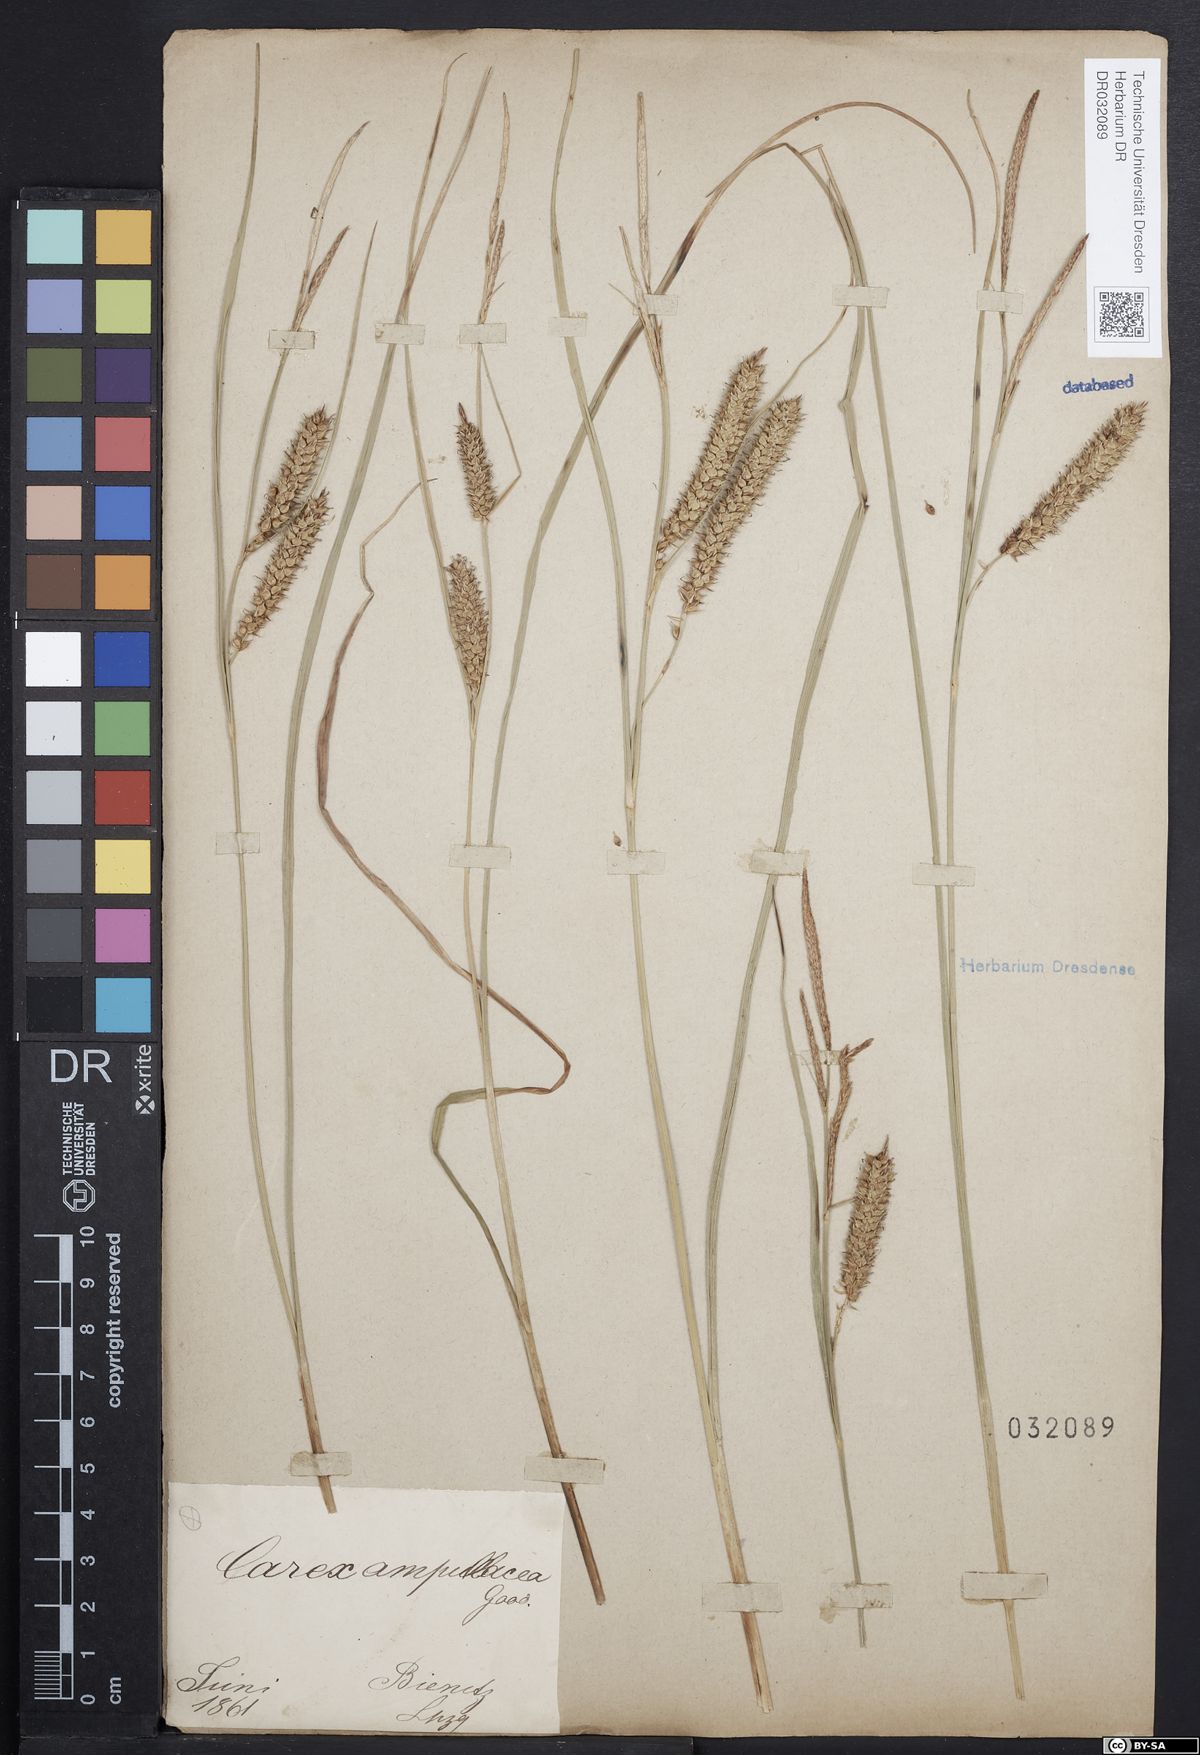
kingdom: Plantae
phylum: Tracheophyta
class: Liliopsida
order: Poales
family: Cyperaceae
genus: Carex
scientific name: Carex rostrata
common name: Bottle sedge
